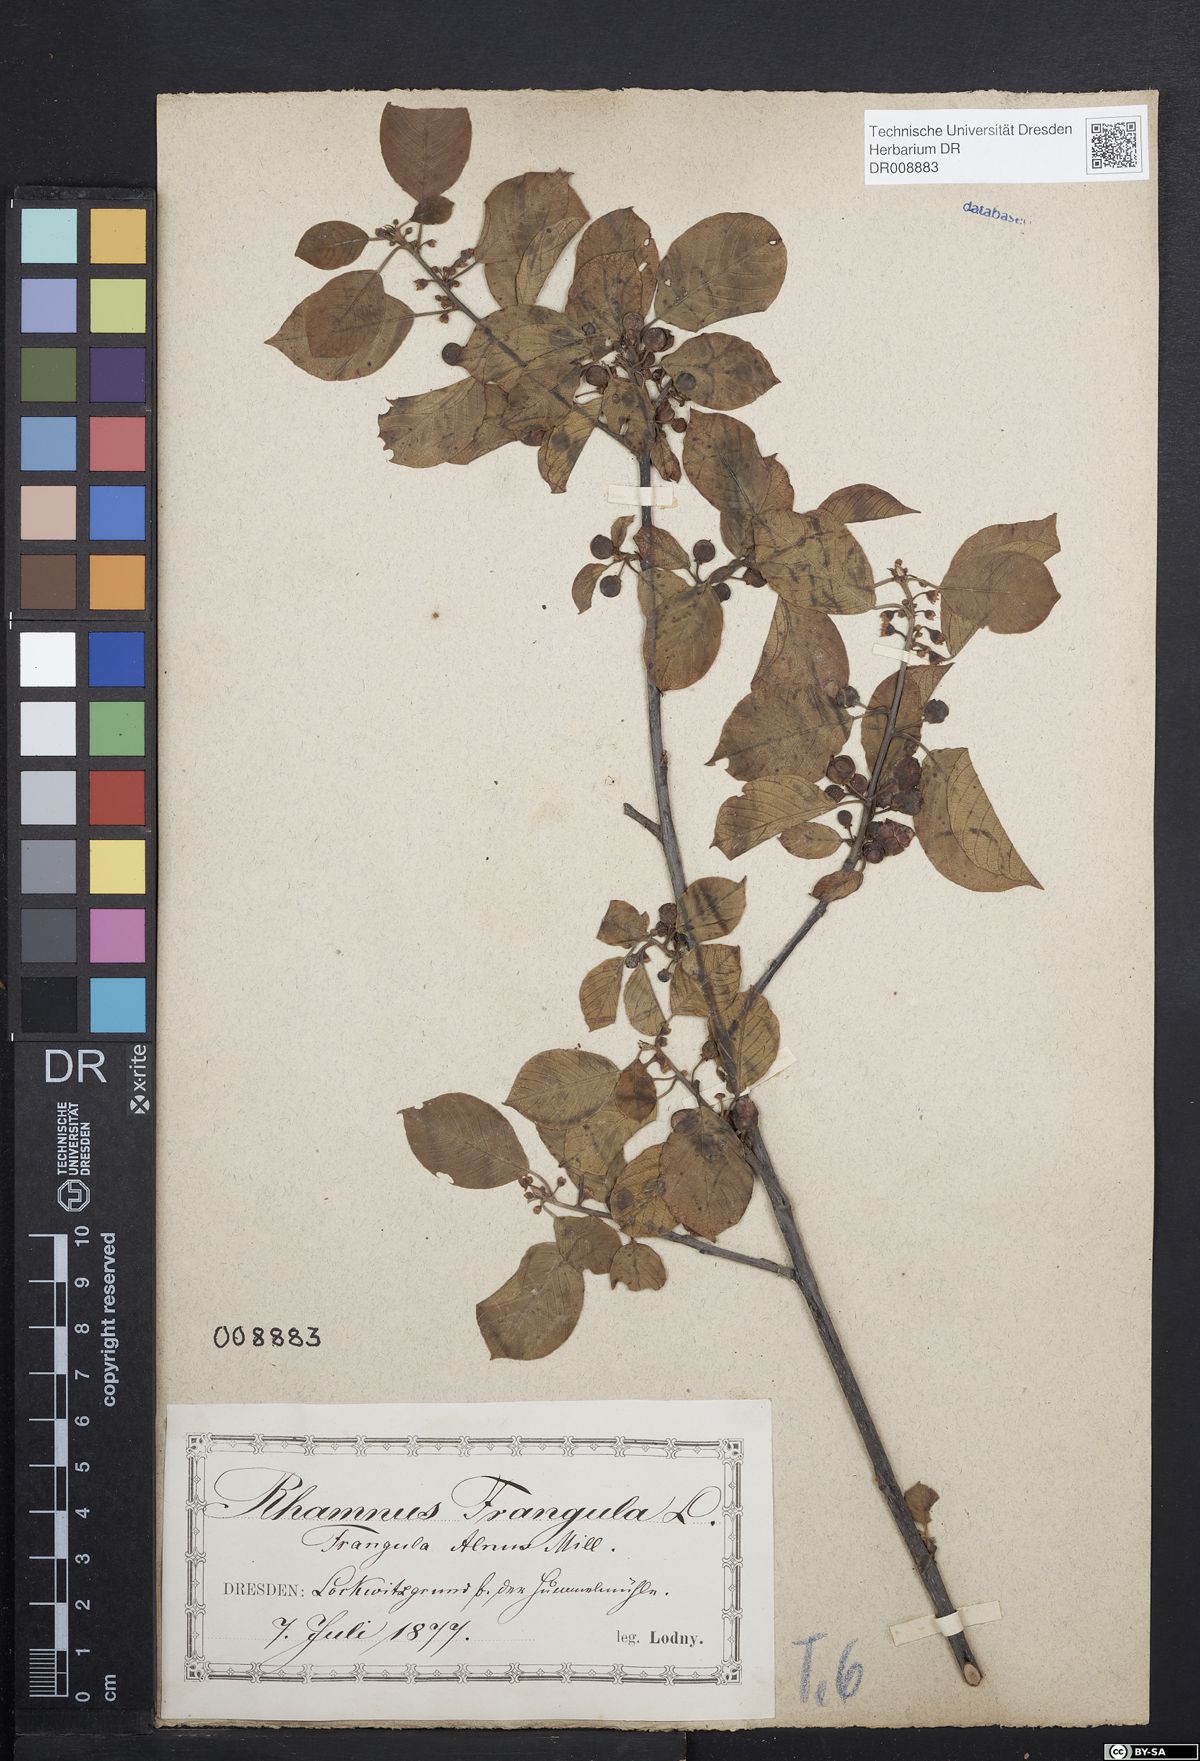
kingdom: Plantae
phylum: Tracheophyta
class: Magnoliopsida
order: Rosales
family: Rhamnaceae
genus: Frangula
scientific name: Frangula alnus
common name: Alder buckthorn
